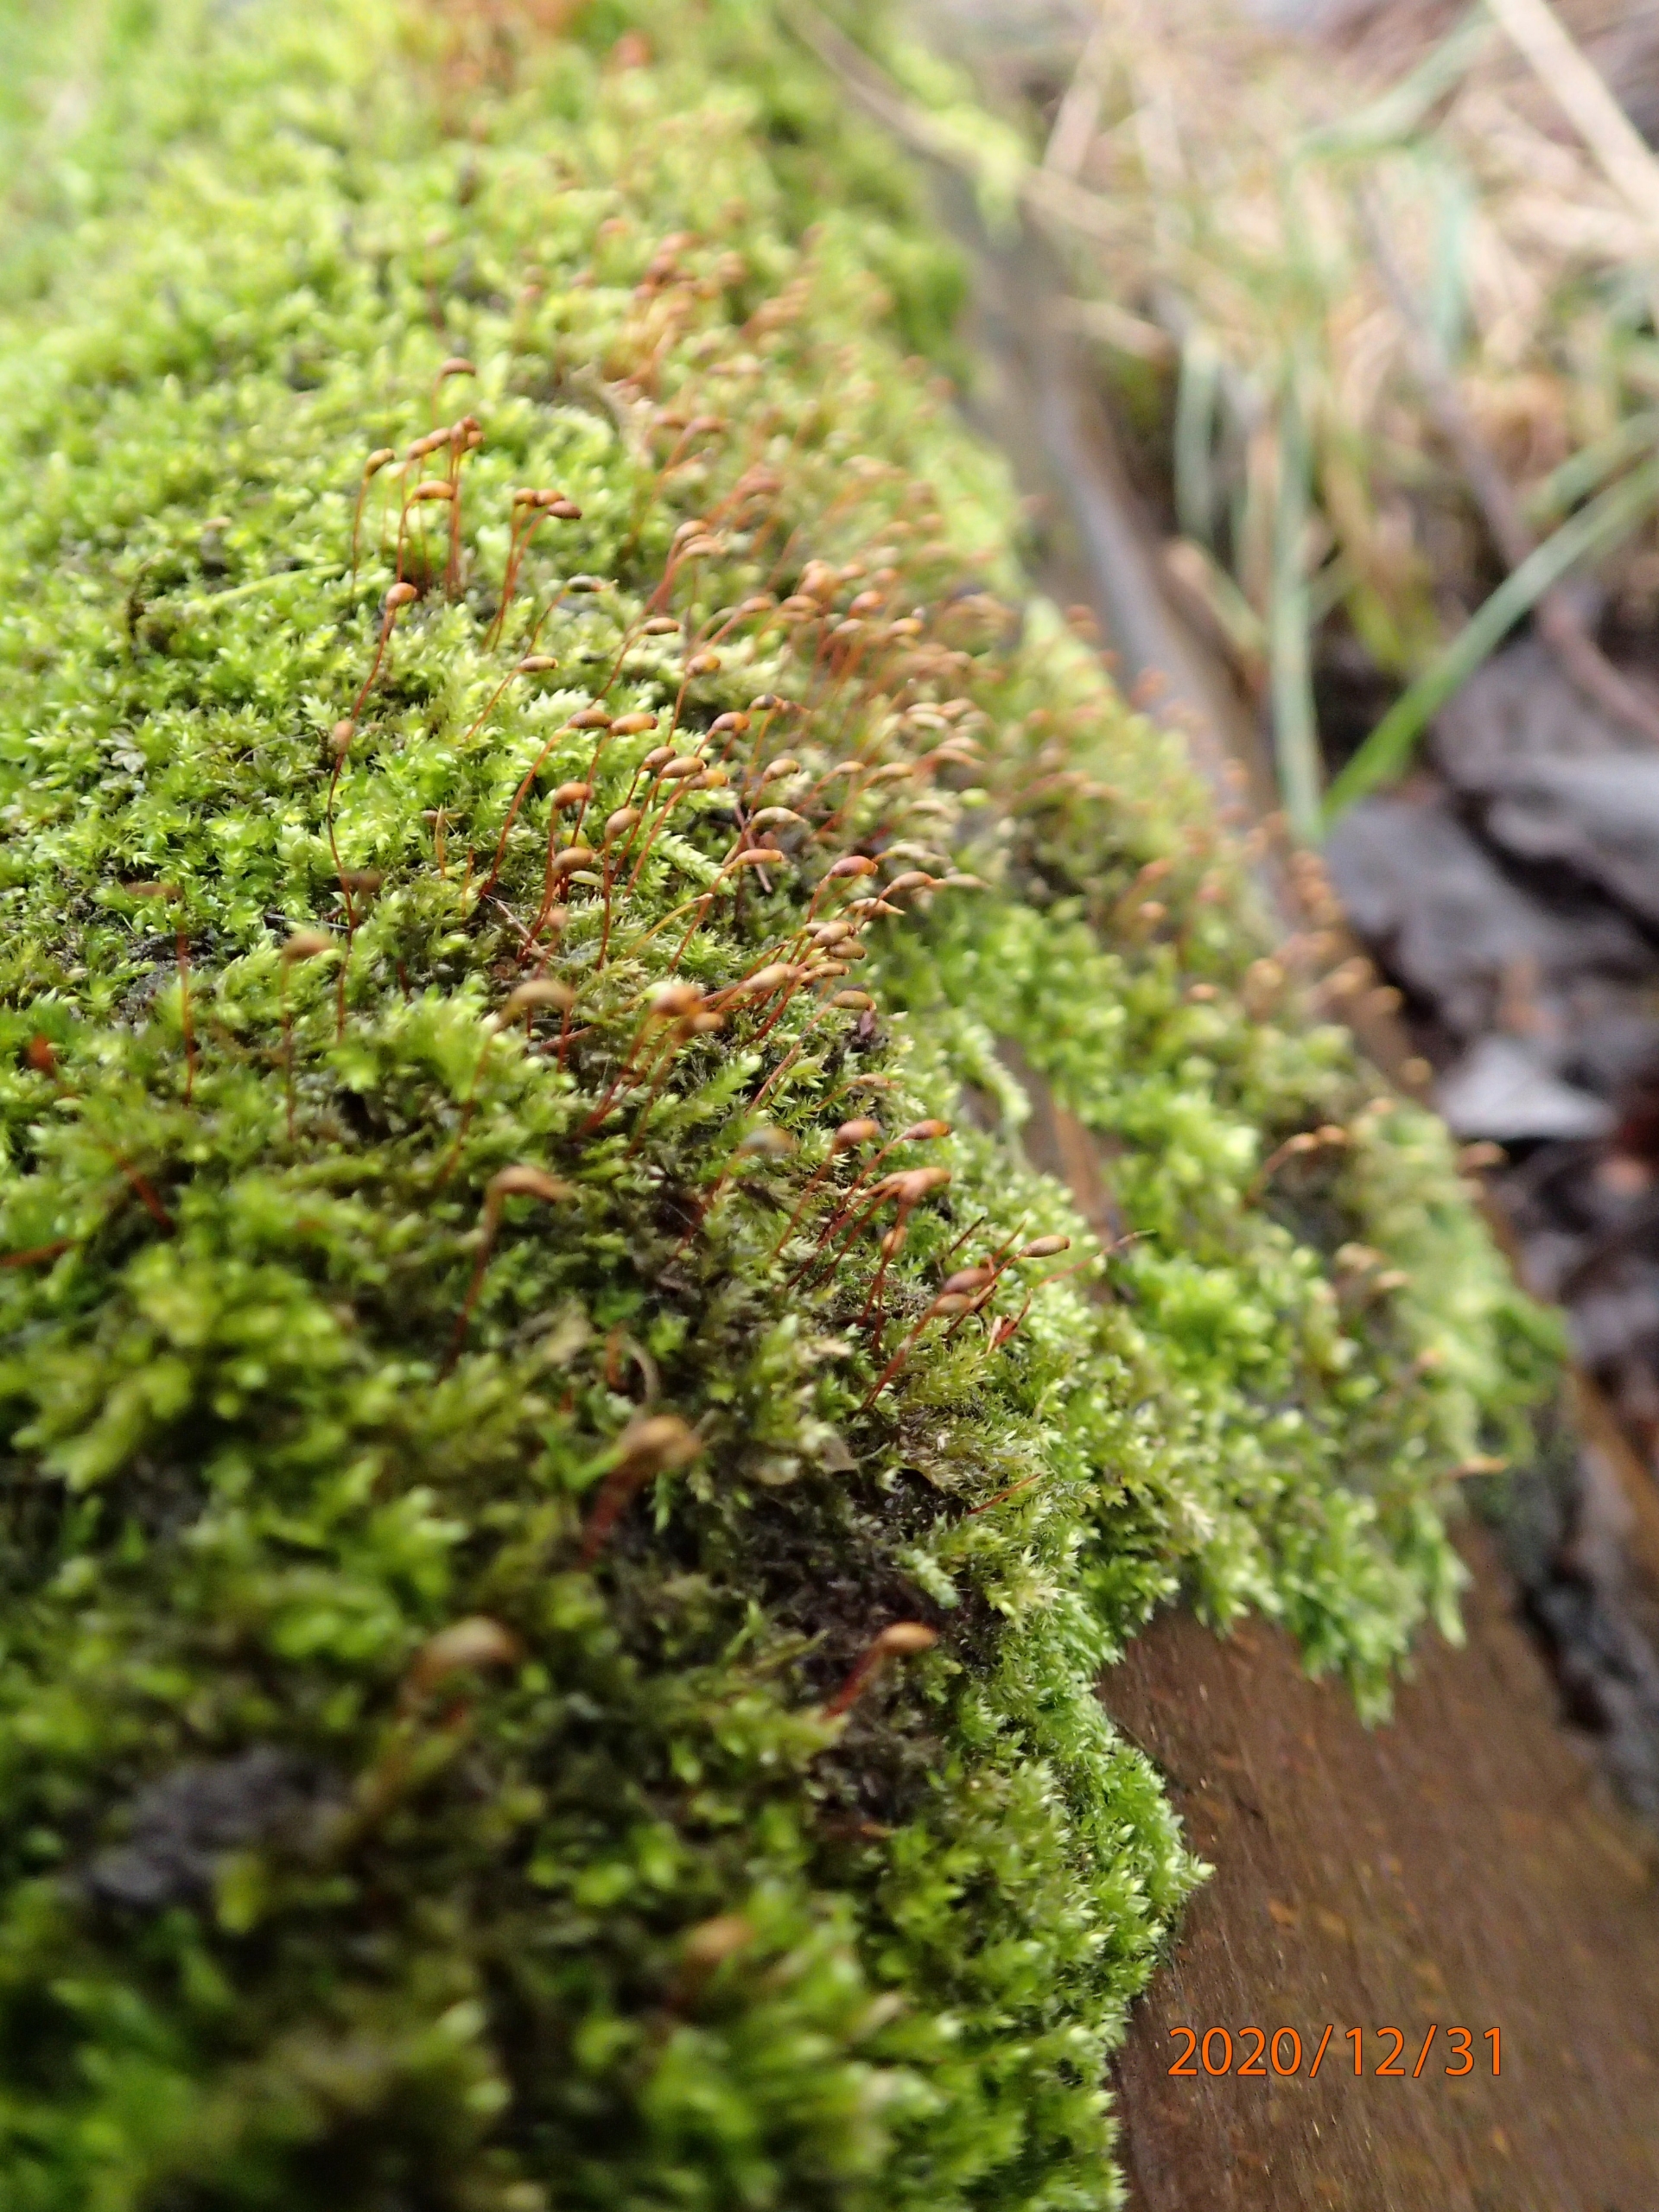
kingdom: Plantae
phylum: Bryophyta
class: Bryopsida
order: Hypnales
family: Brachytheciaceae
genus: Rhynchostegium
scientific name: Rhynchostegium confertum
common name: Skov-langnæb
